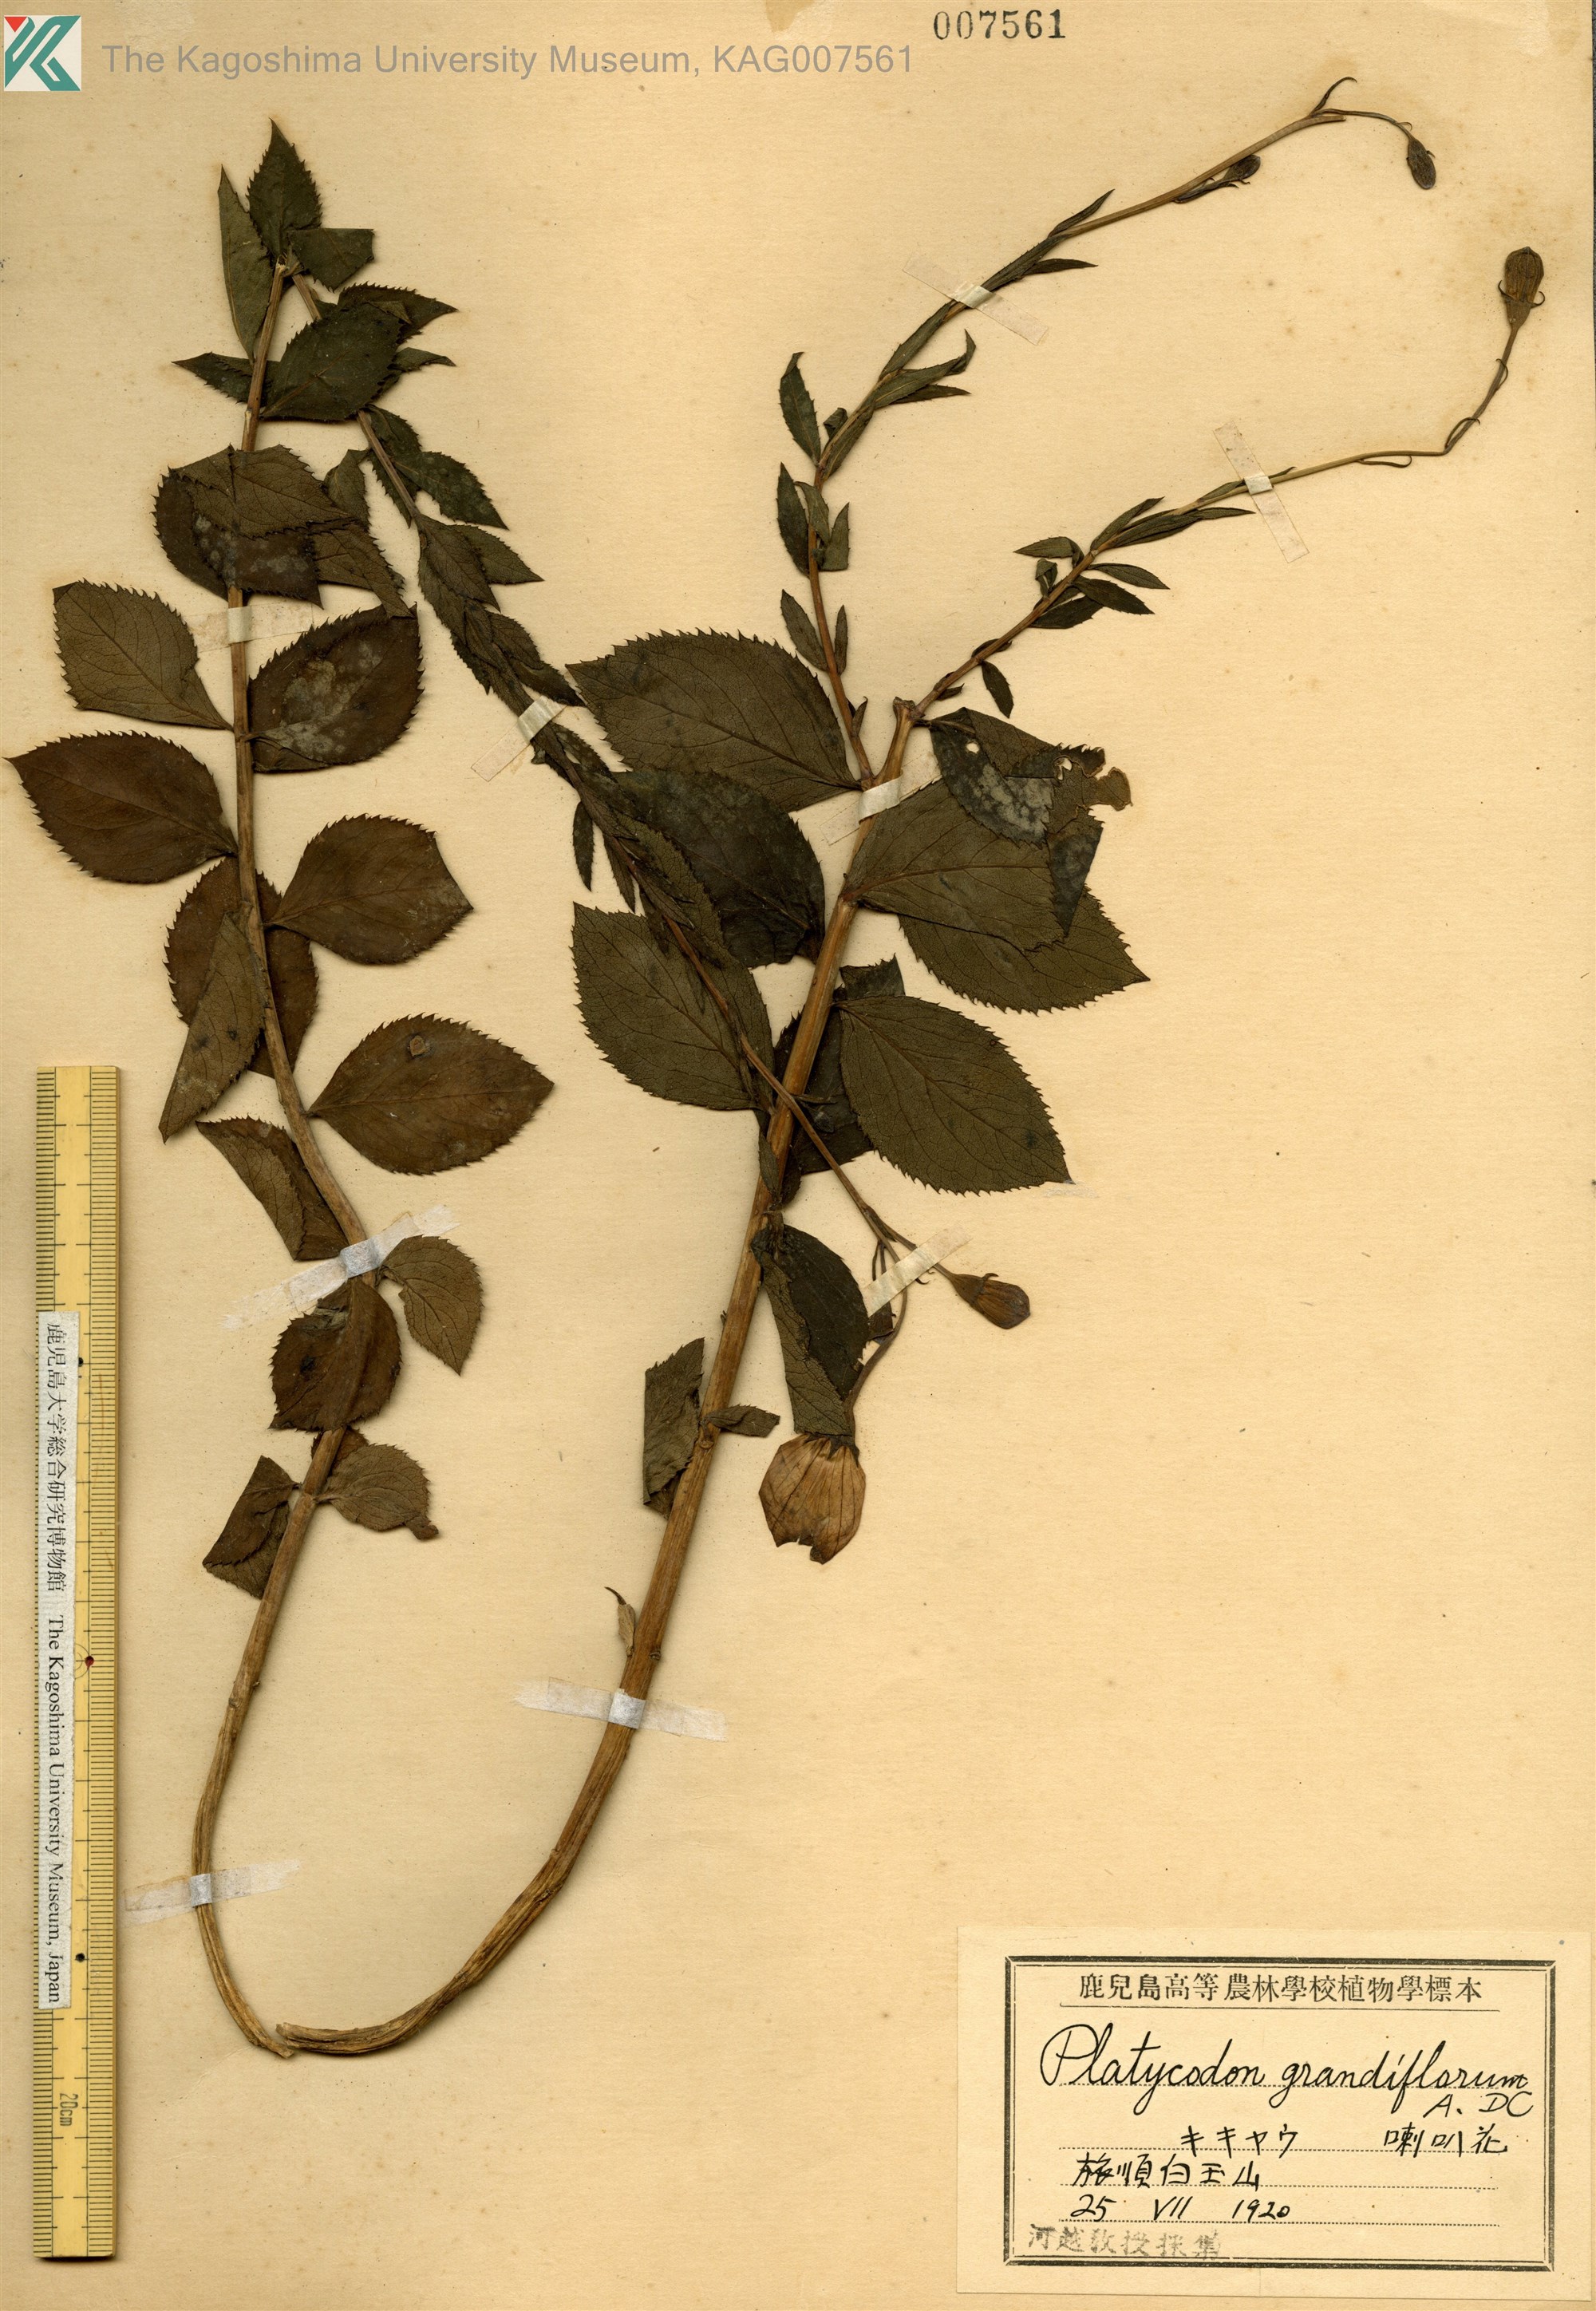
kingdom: Plantae
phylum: Tracheophyta
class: Magnoliopsida
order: Asterales
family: Campanulaceae
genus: Platycodon
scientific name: Platycodon grandiflorus
